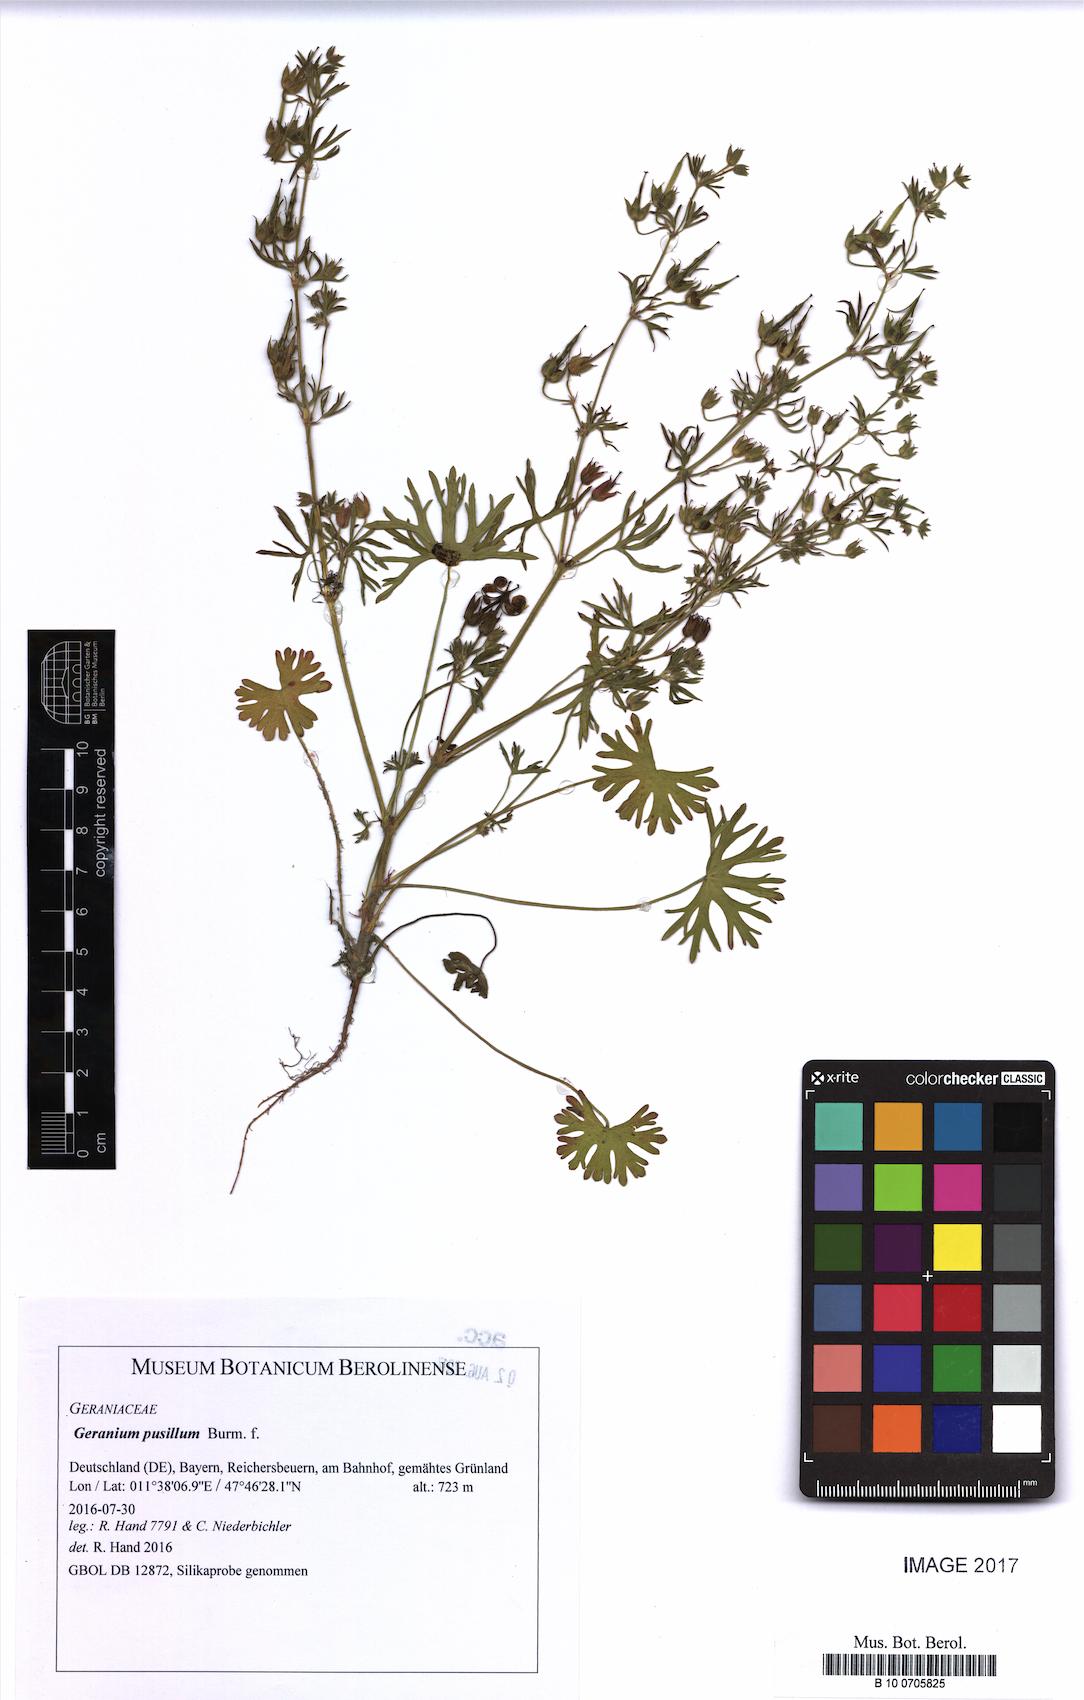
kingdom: Plantae
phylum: Tracheophyta
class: Magnoliopsida
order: Geraniales
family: Geraniaceae
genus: Geranium
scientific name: Geranium pusillum
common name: Small geranium
